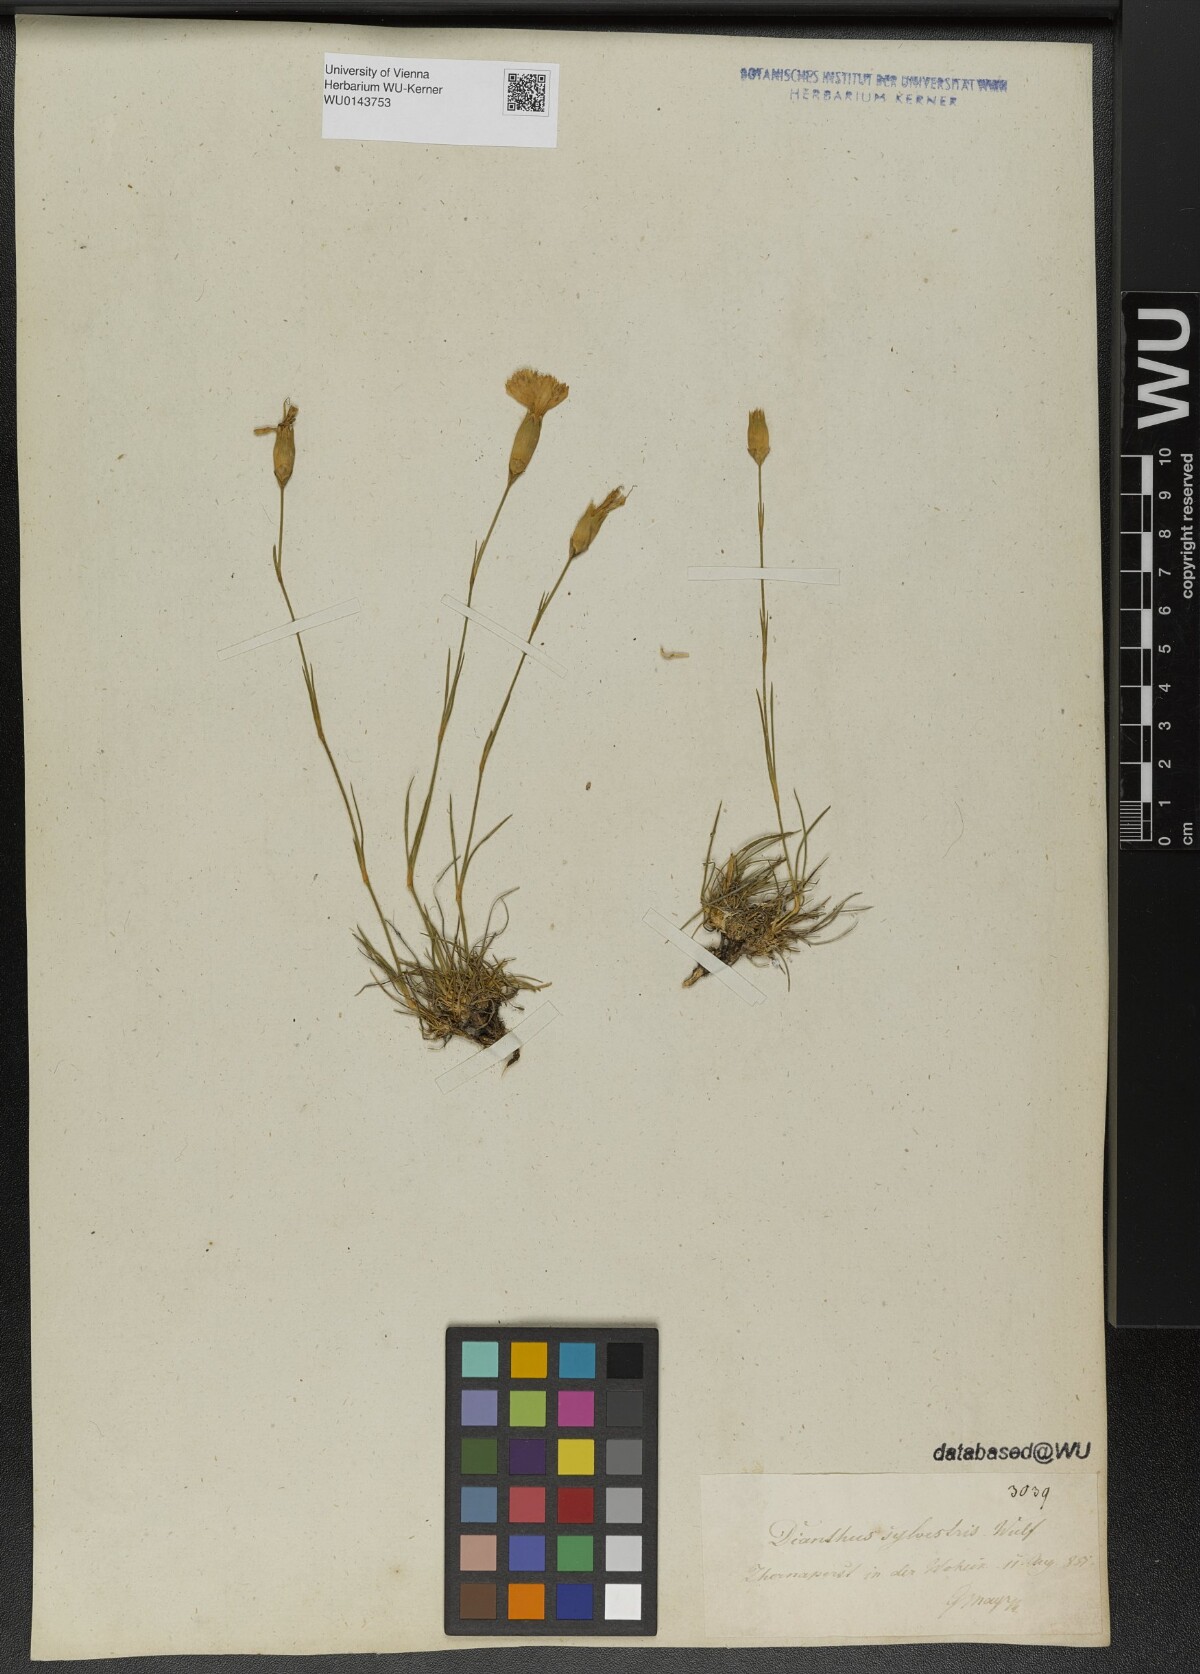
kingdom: Plantae
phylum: Tracheophyta
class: Magnoliopsida
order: Caryophyllales
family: Caryophyllaceae
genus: Dianthus
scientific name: Dianthus sylvestris
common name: Wood pink
